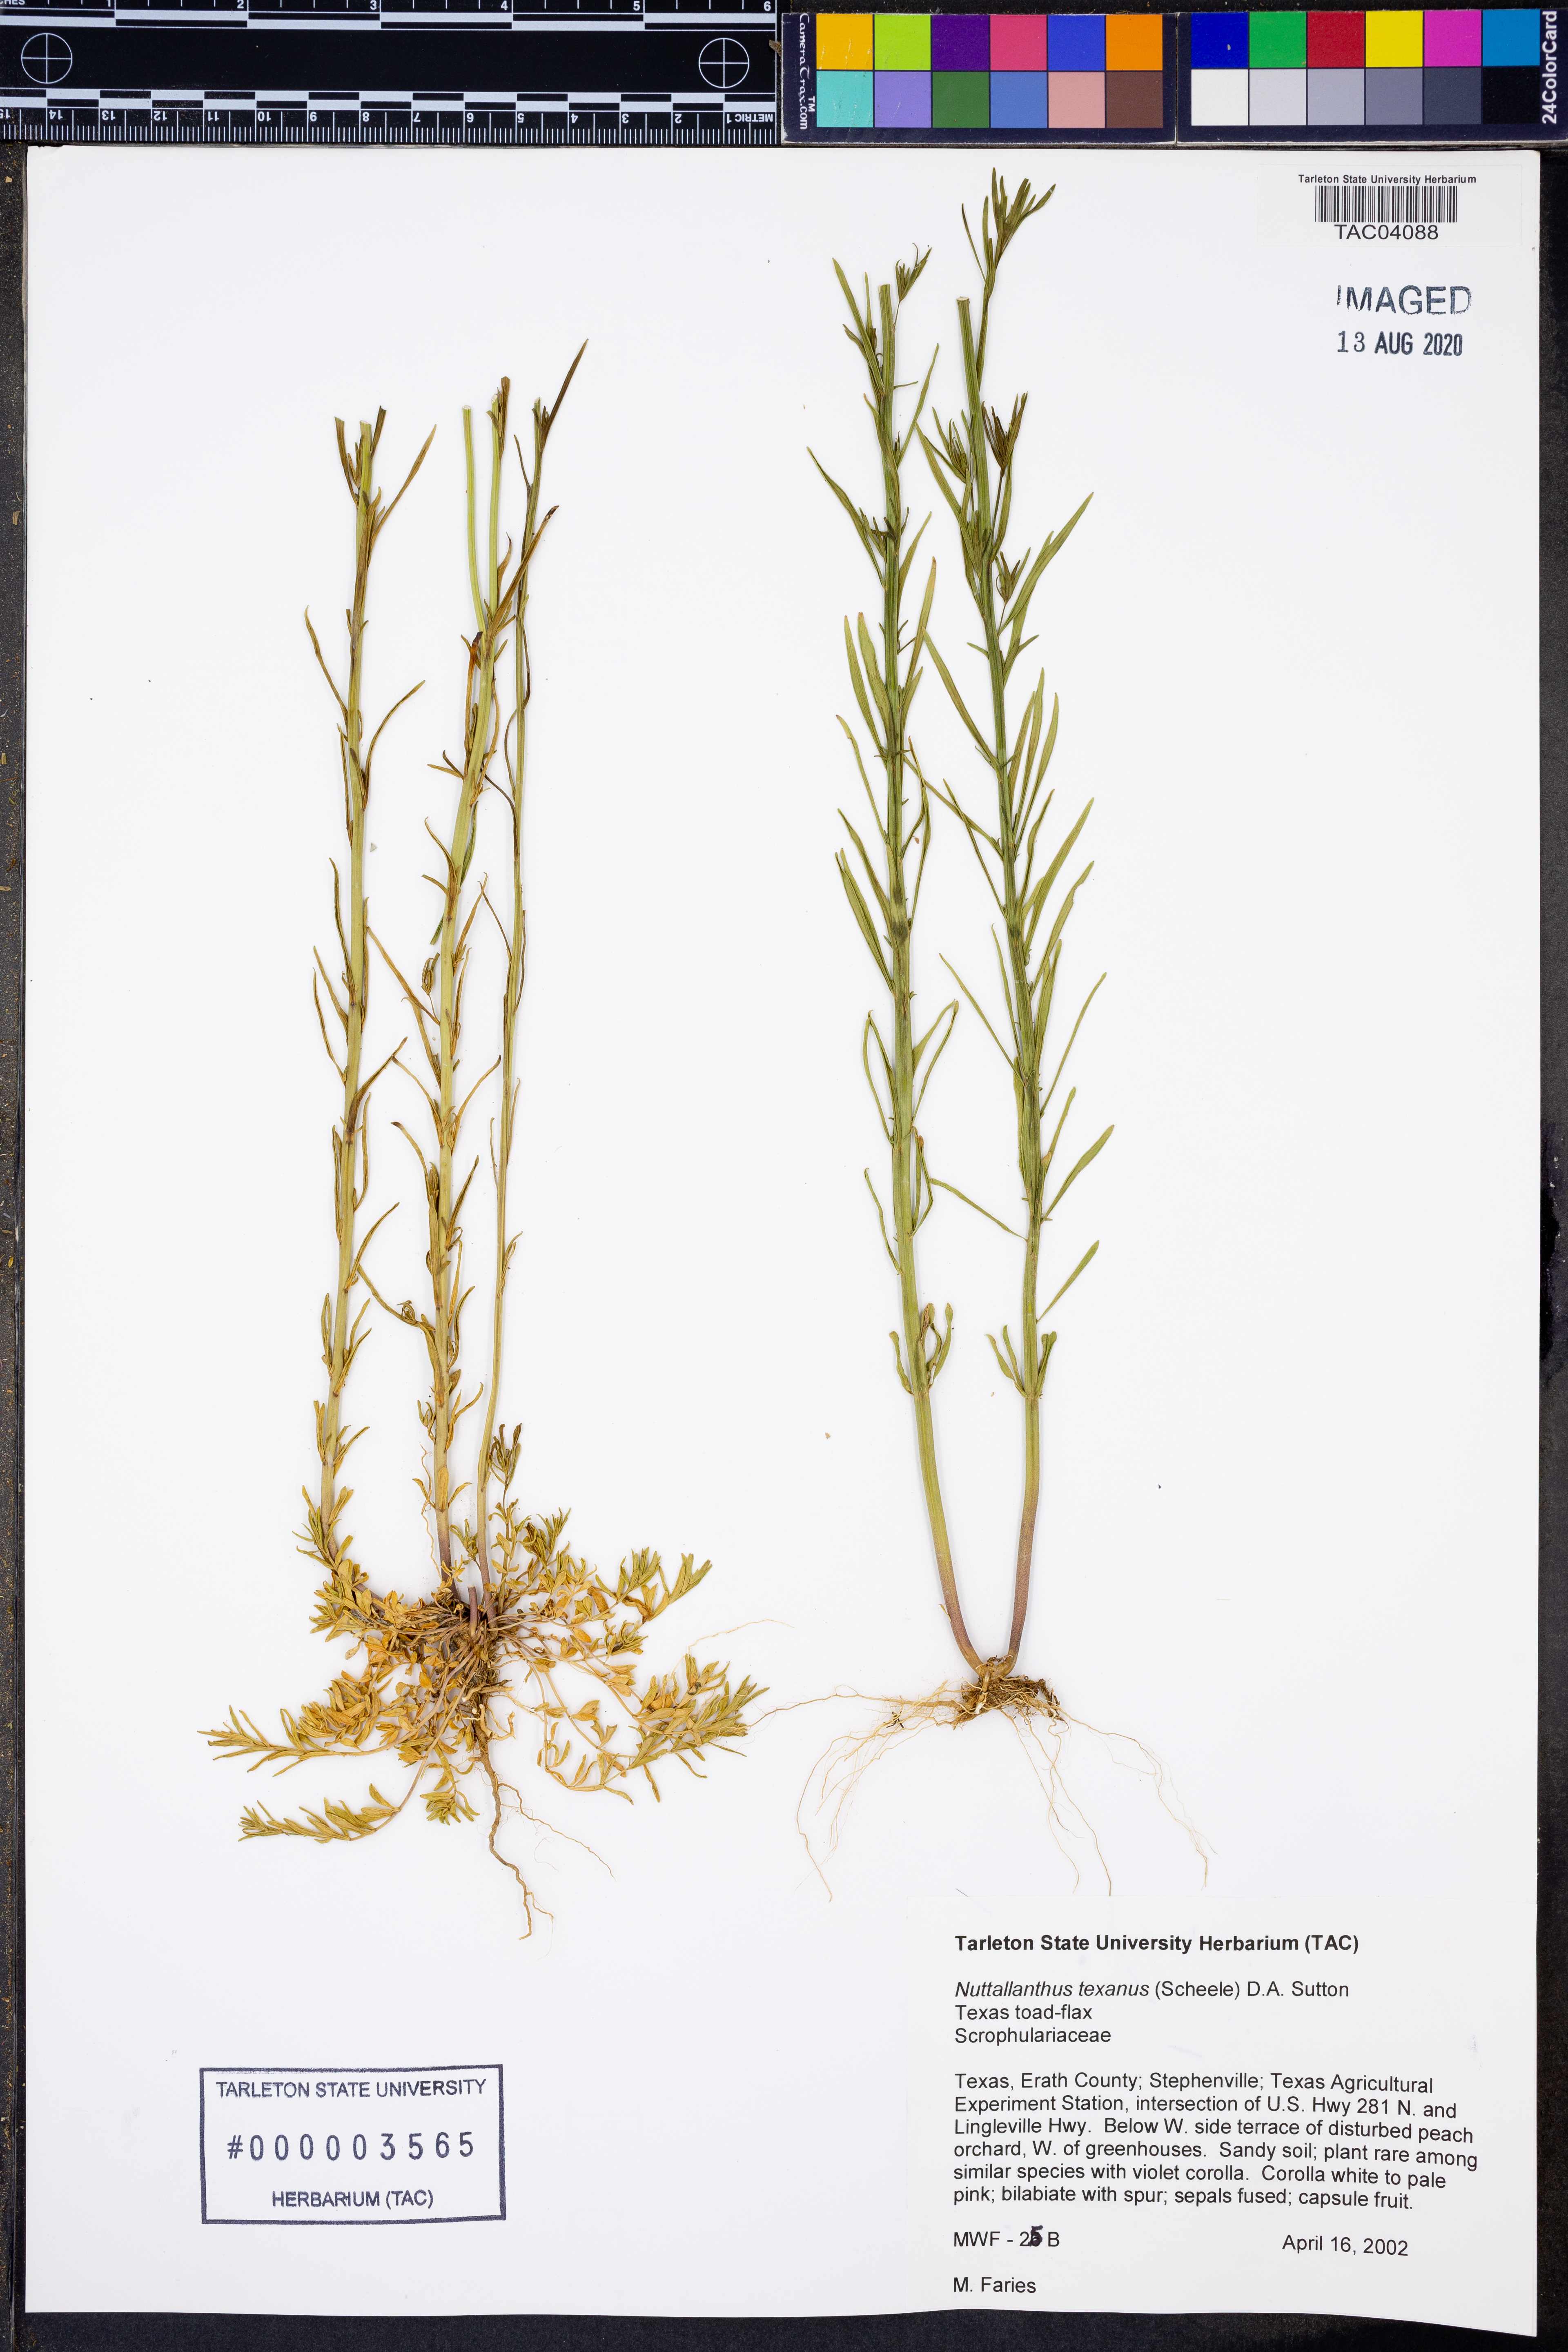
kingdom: Plantae
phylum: Tracheophyta
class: Magnoliopsida
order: Lamiales
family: Plantaginaceae
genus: Nuttallanthus
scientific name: Nuttallanthus texanus
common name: Texas toadflax
